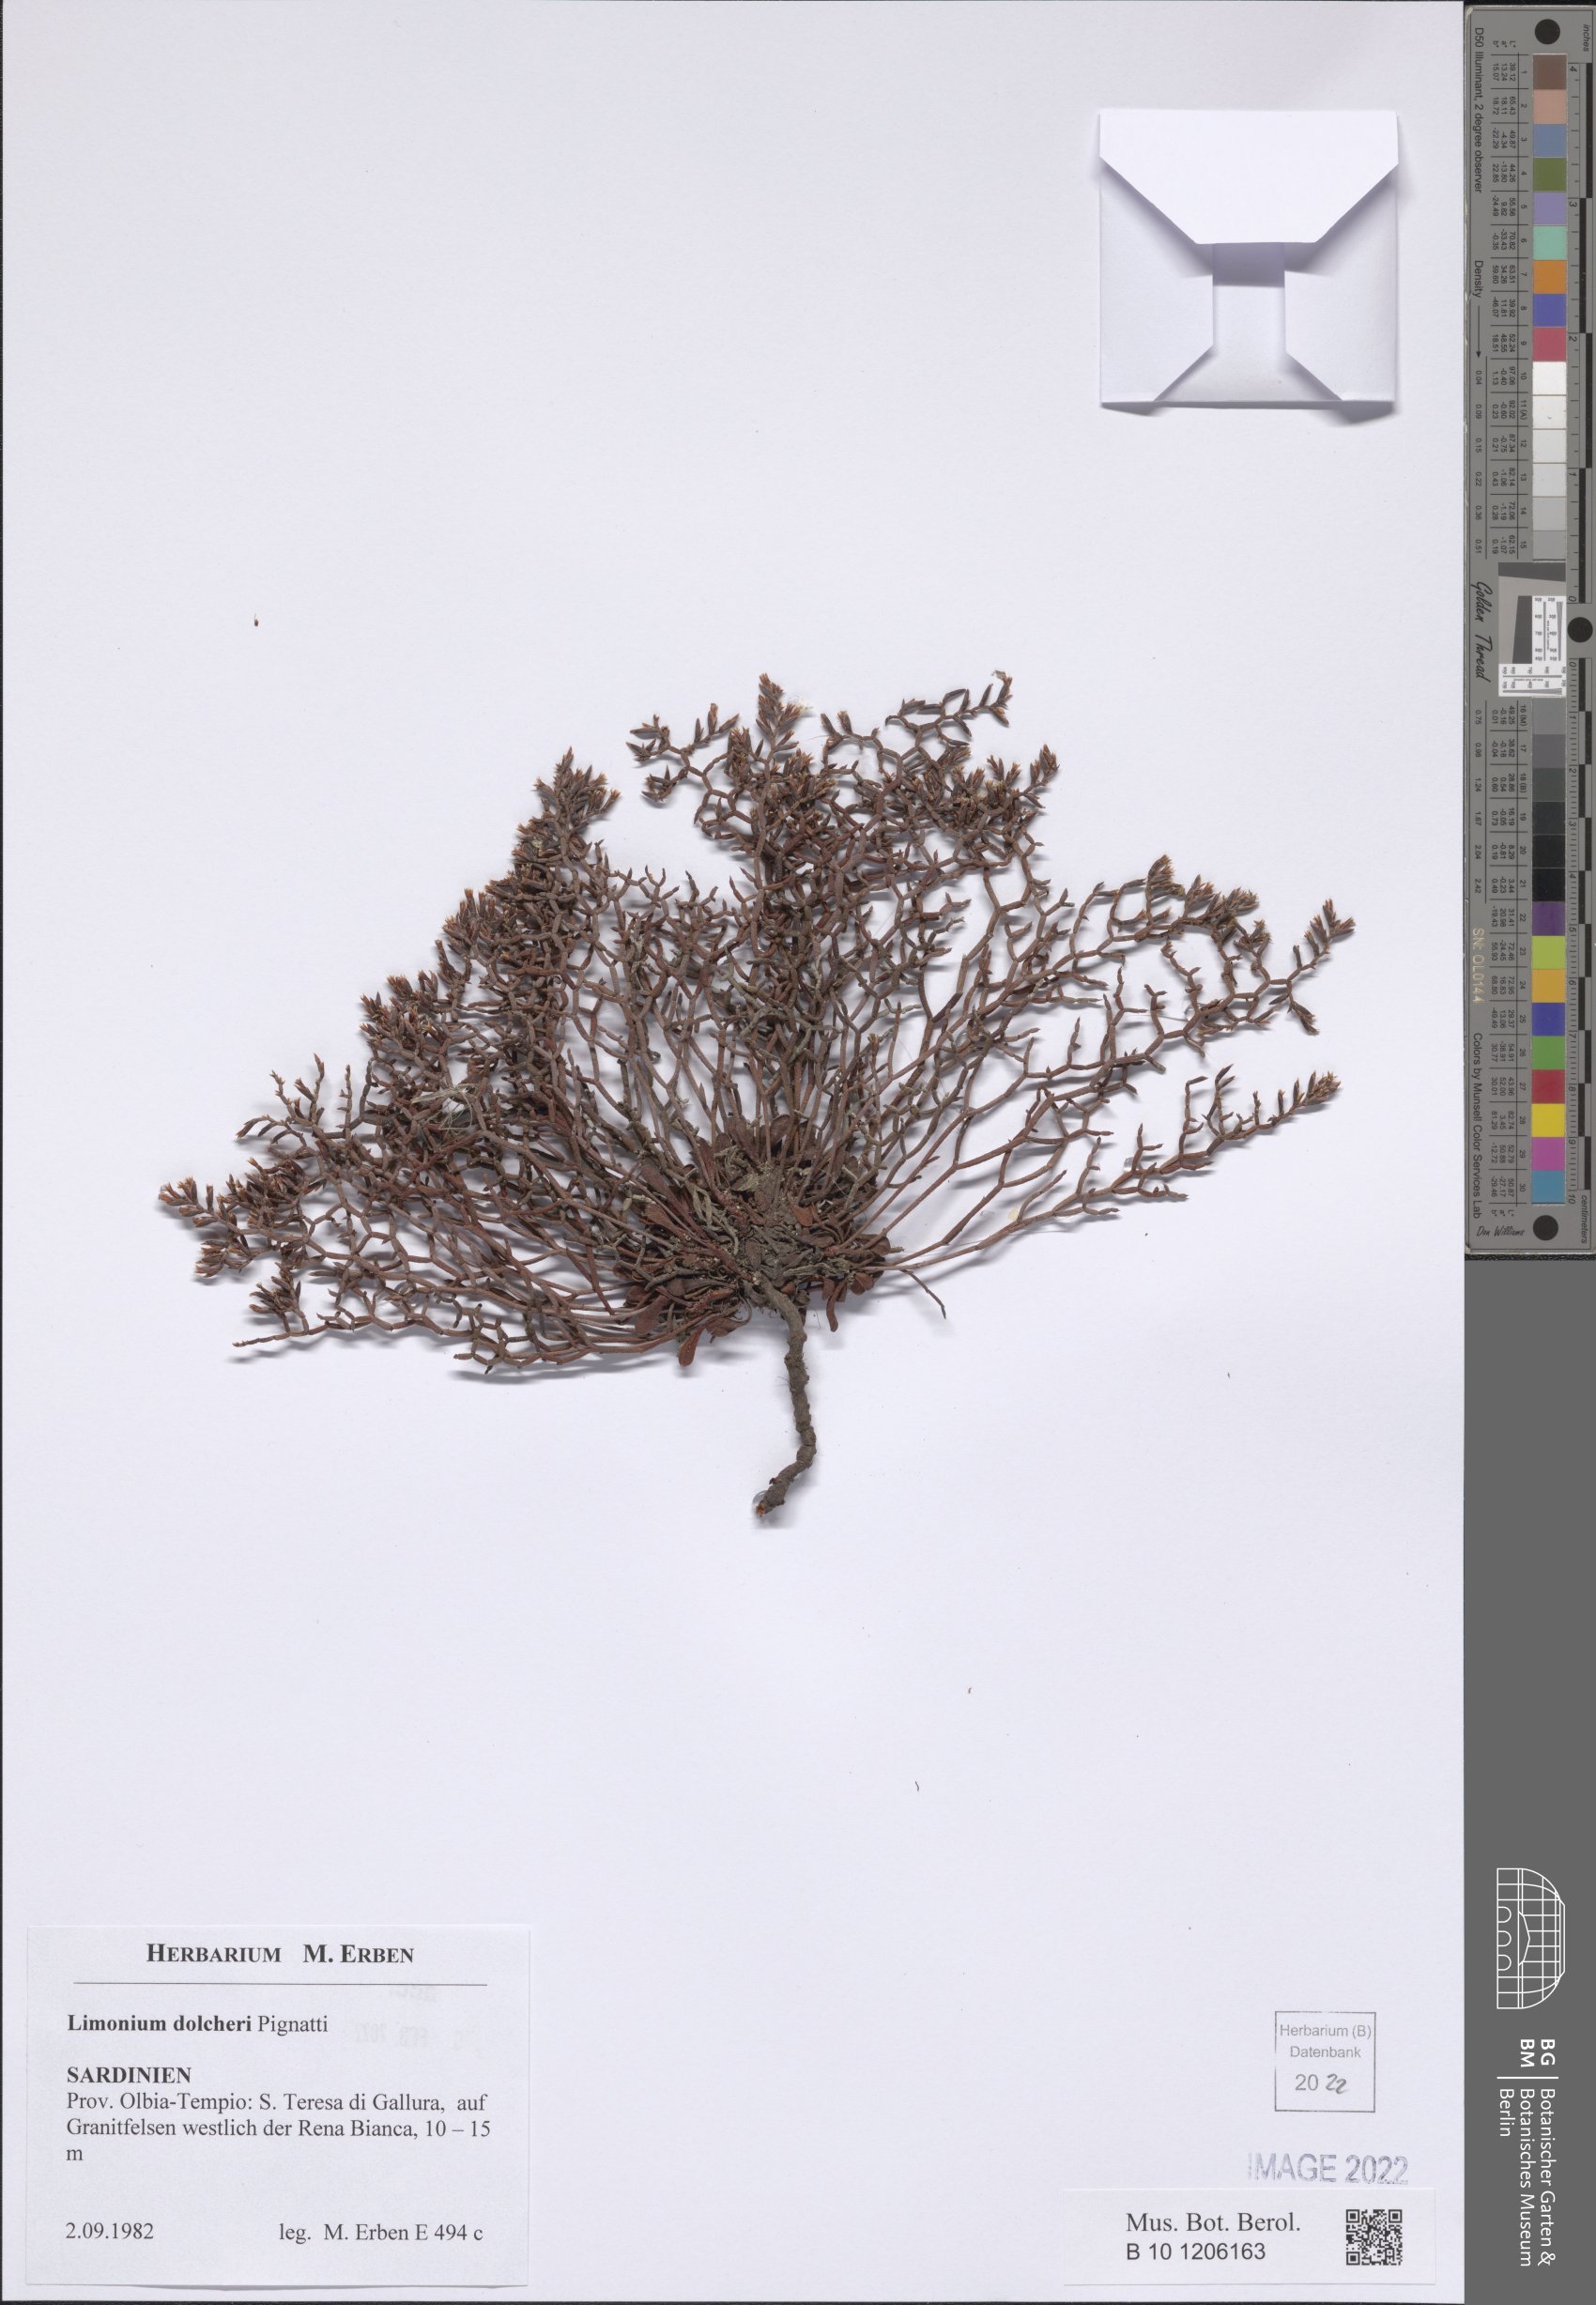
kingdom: Plantae
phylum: Tracheophyta
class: Magnoliopsida
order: Caryophyllales
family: Plumbaginaceae
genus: Limonium
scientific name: Limonium dolcheri
